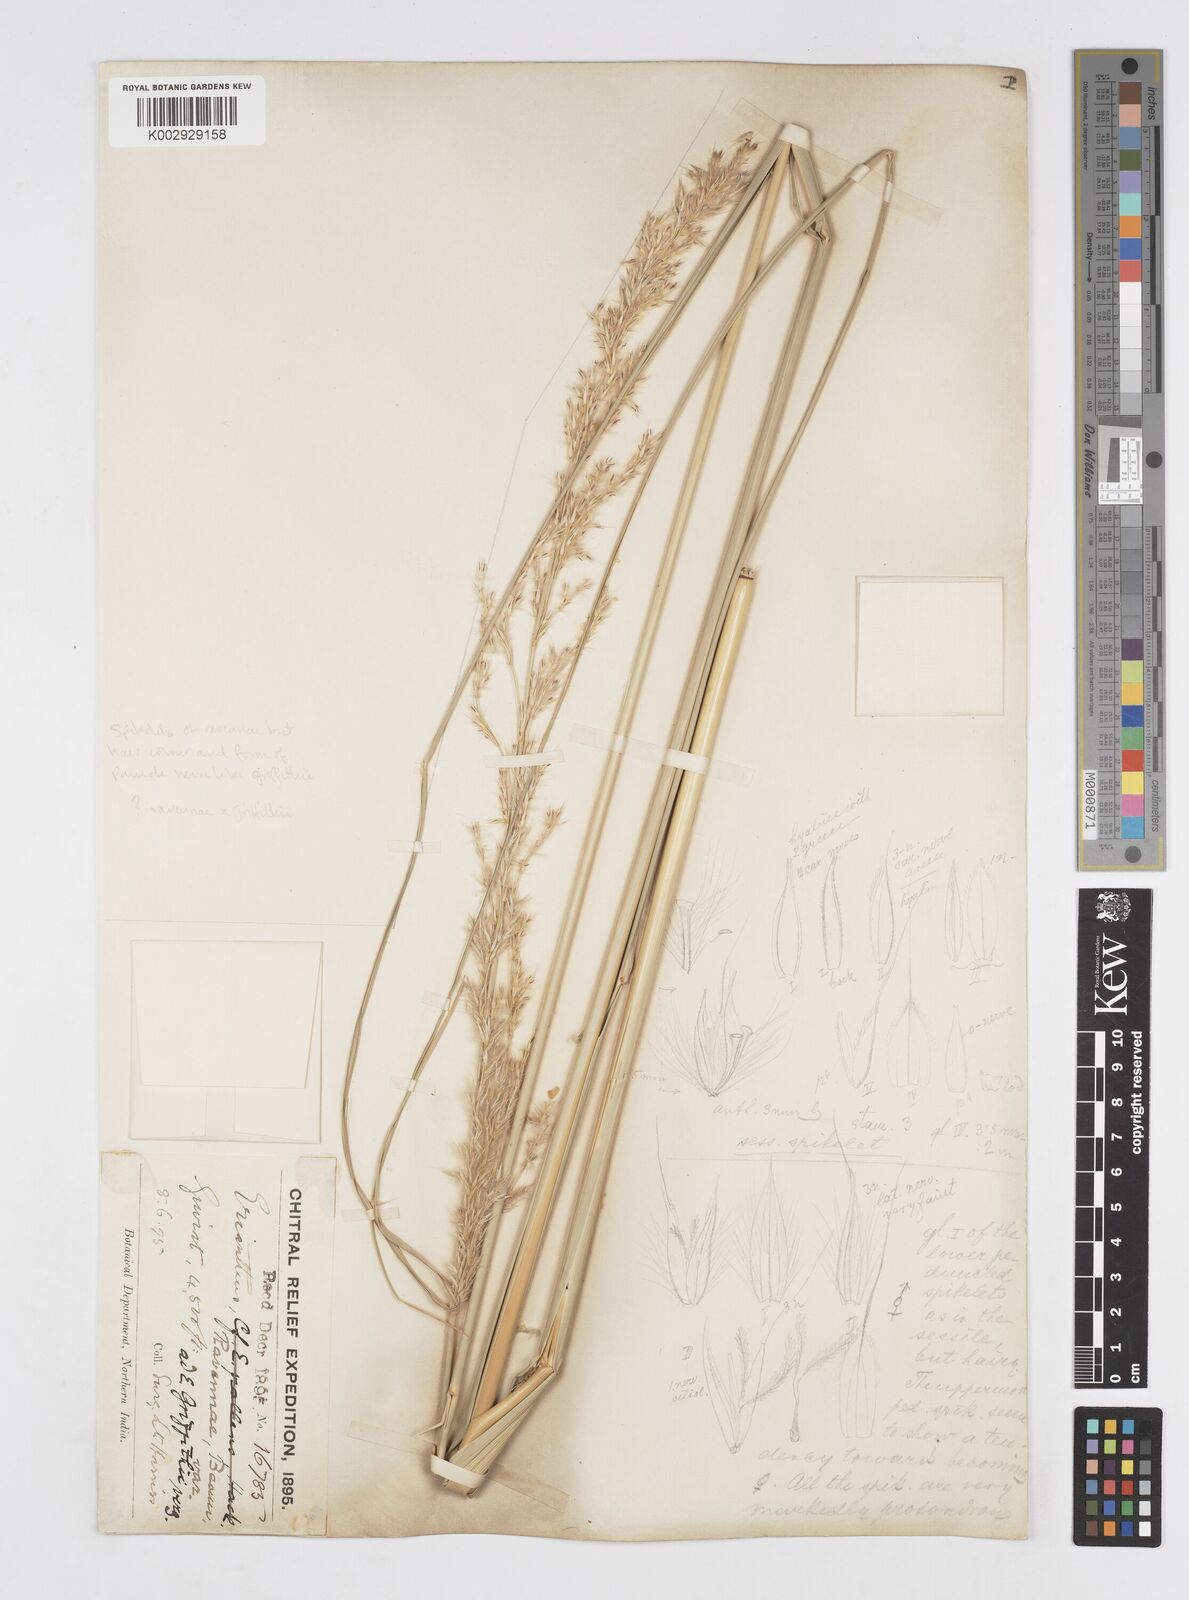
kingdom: Plantae
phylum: Tracheophyta
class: Liliopsida
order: Poales
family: Poaceae
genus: Saccharum
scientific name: Saccharum griffithii
